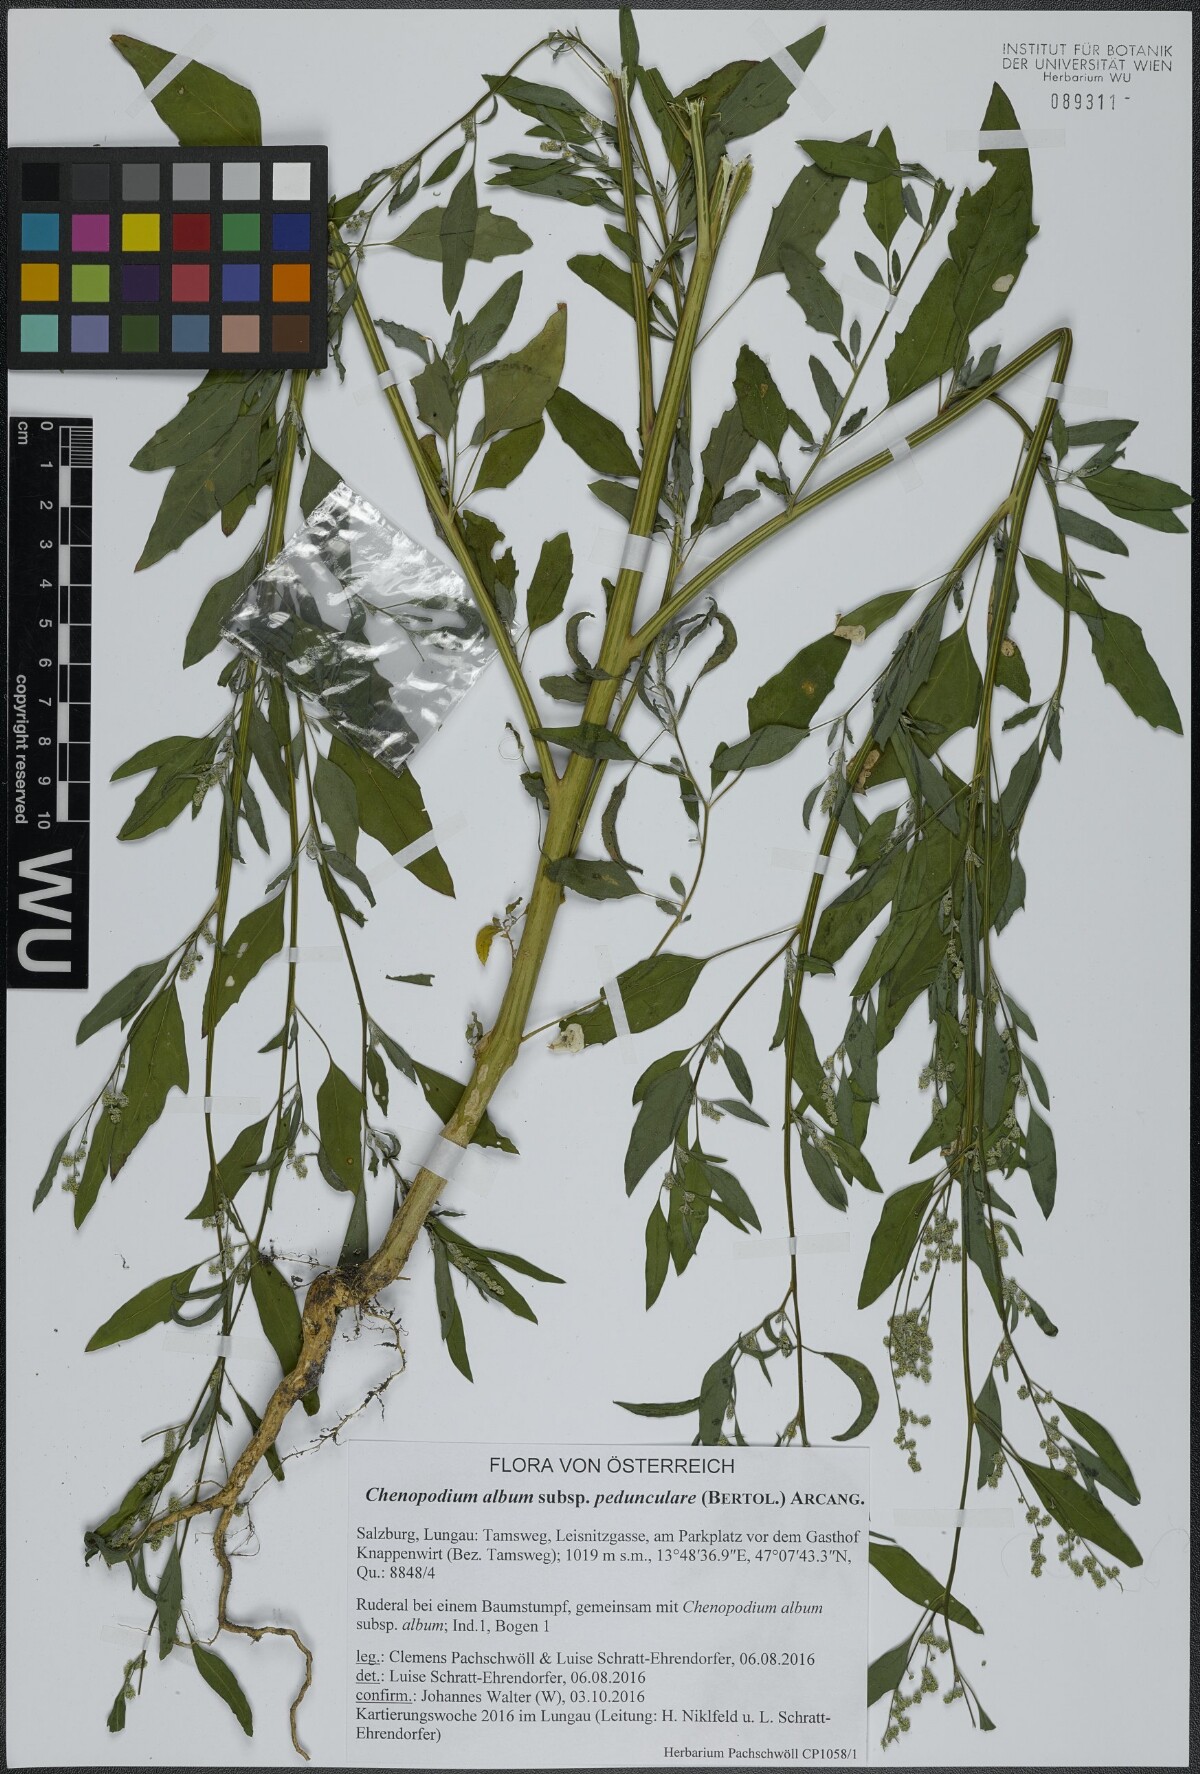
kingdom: Plantae
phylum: Tracheophyta
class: Magnoliopsida
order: Caryophyllales
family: Amaranthaceae
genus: Chenopodium
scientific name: Chenopodium album
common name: Fat-hen
